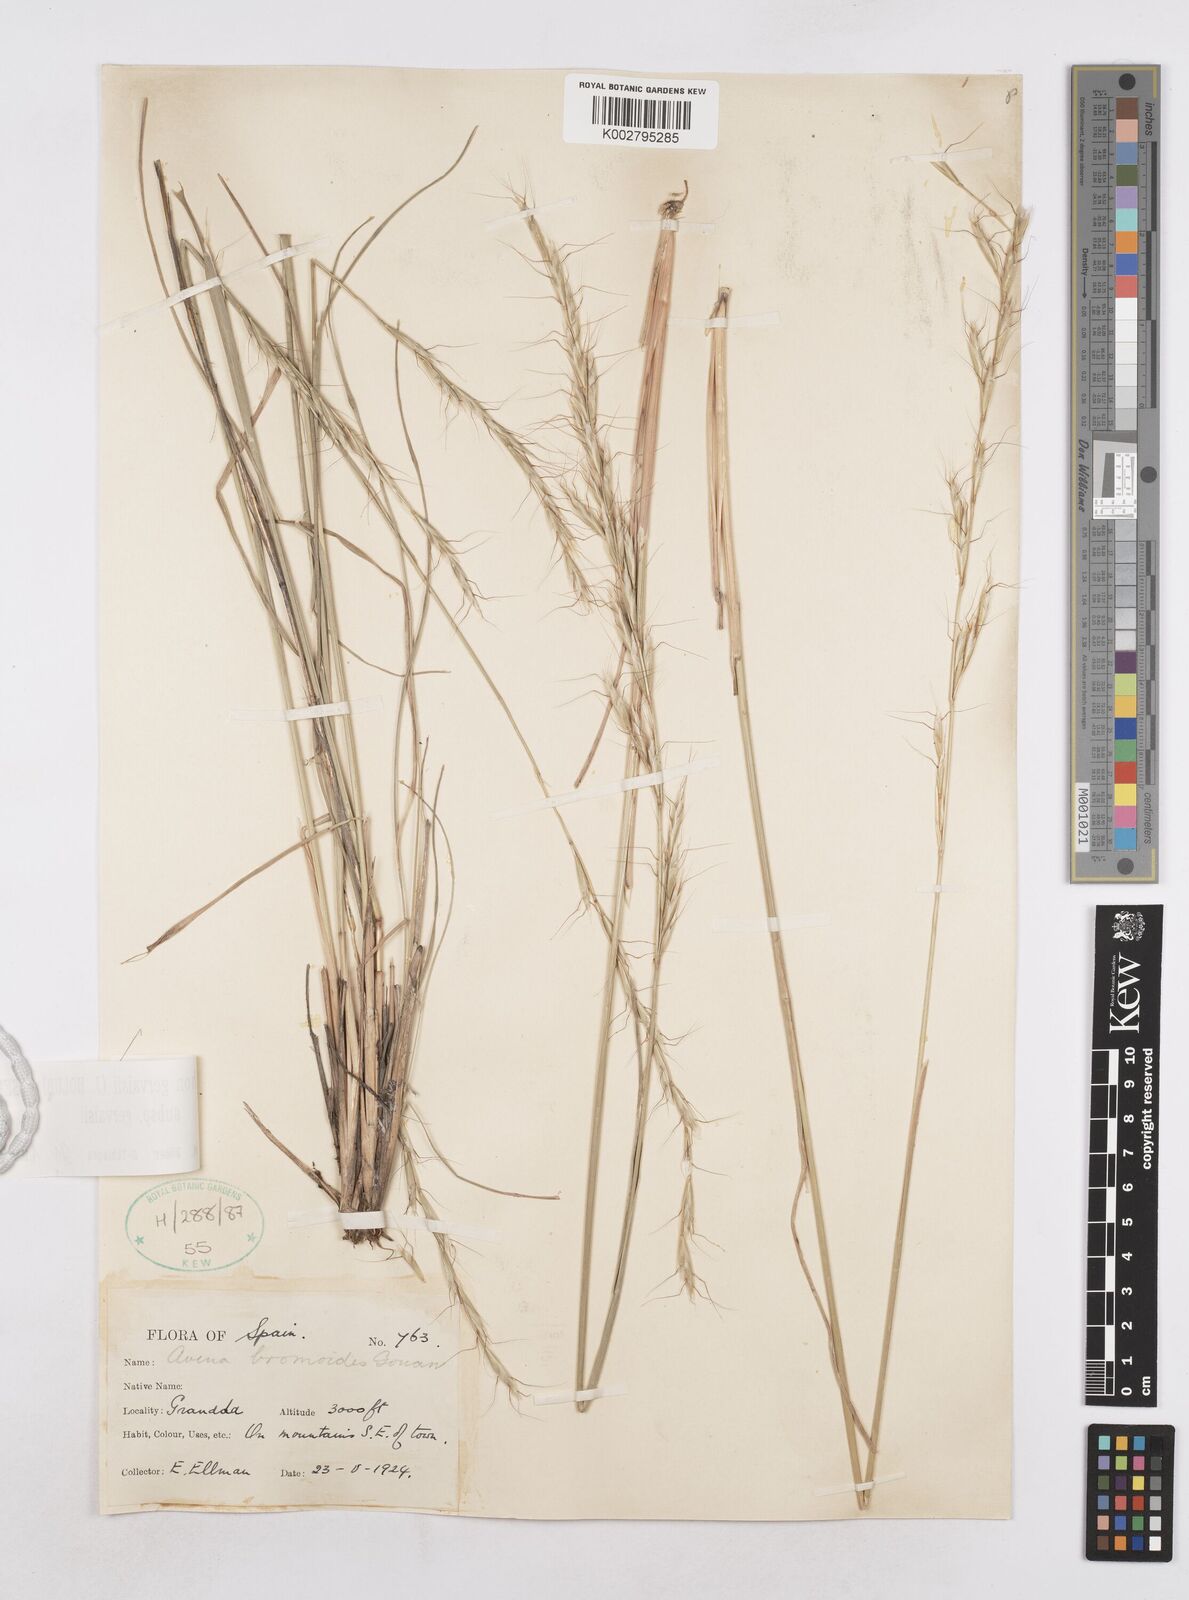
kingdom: Plantae
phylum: Tracheophyta
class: Liliopsida
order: Poales
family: Poaceae
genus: Helictochloa
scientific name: Helictochloa gervaisii
